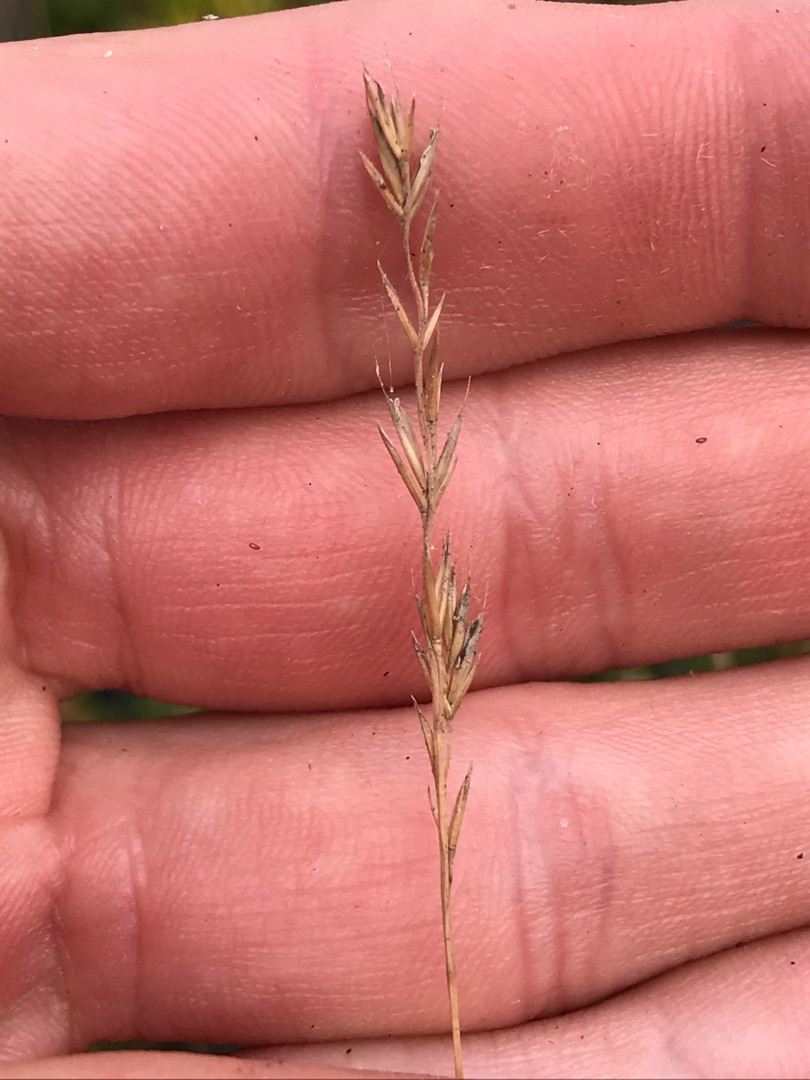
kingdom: Plantae
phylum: Tracheophyta
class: Liliopsida
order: Poales
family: Poaceae
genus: Festuca
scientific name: Festuca trachyphylla
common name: Bakke-svingel
